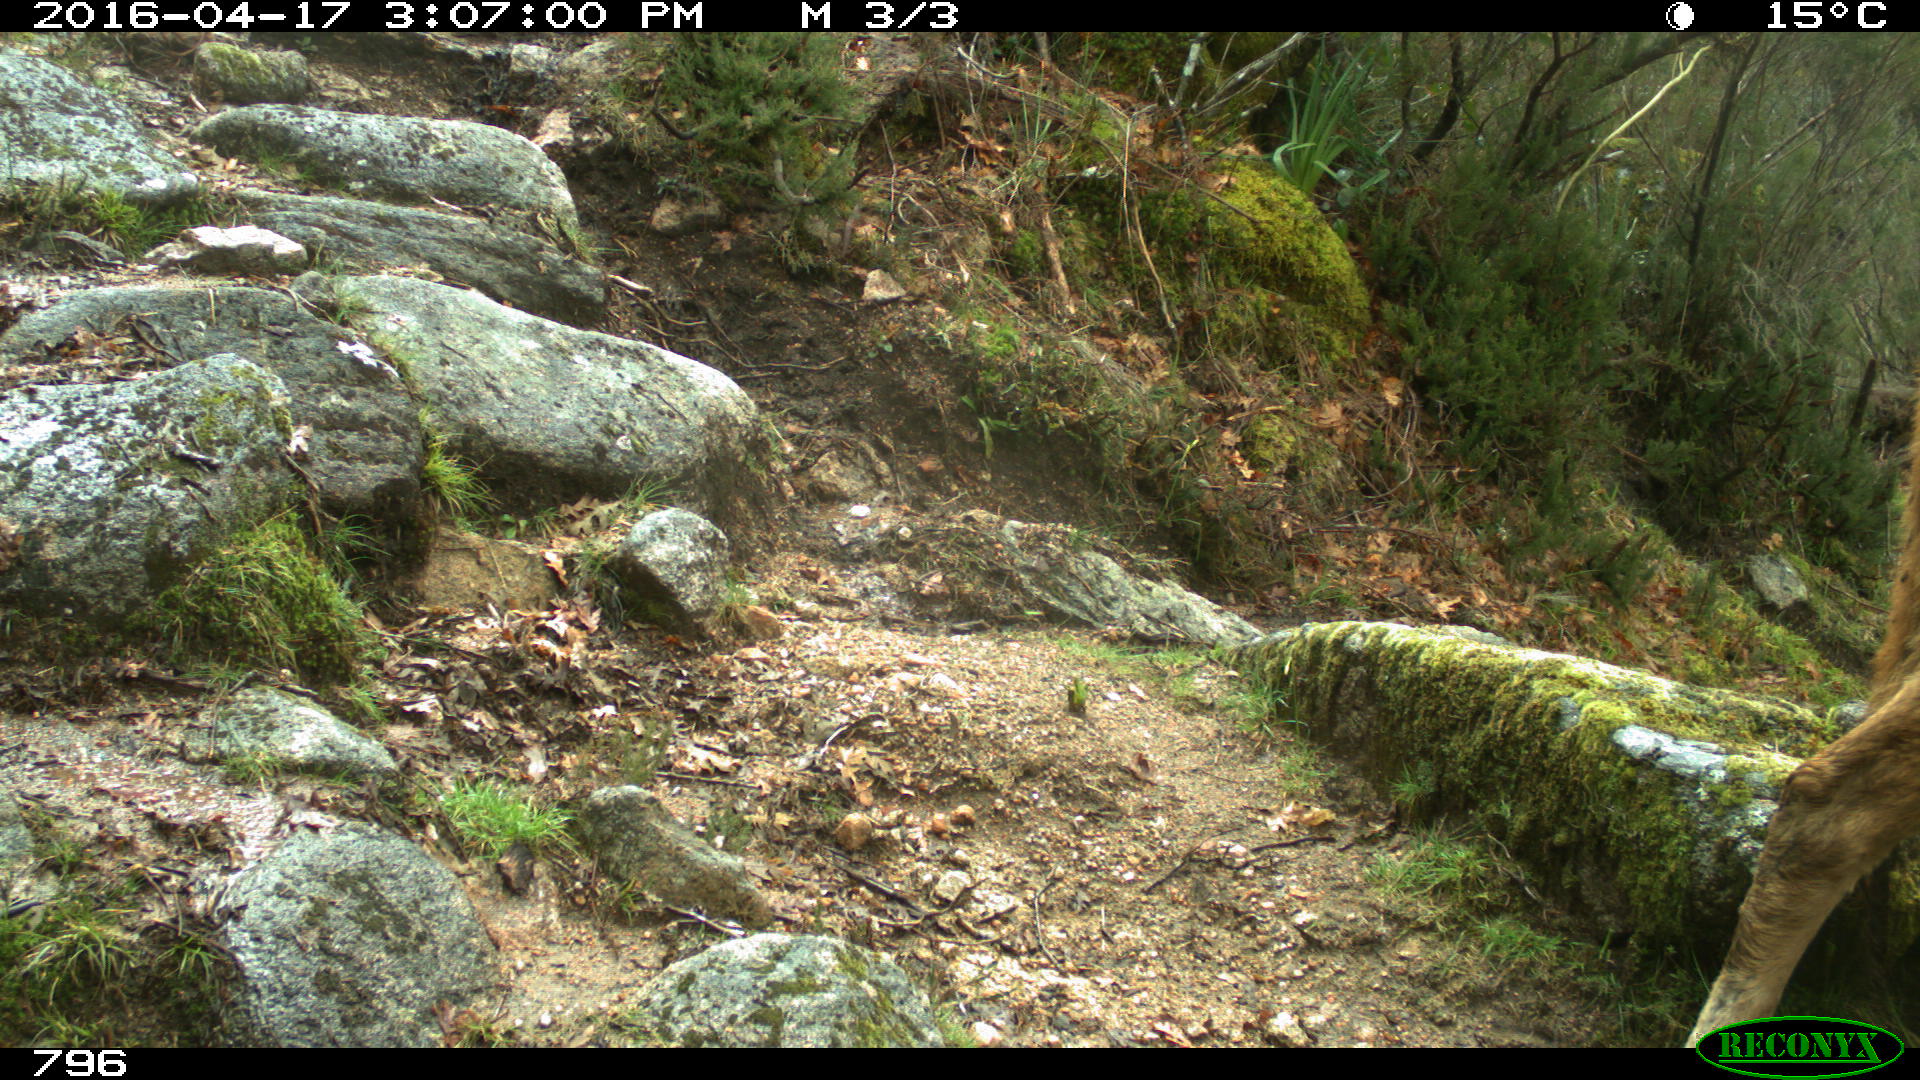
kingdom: Animalia
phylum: Chordata
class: Mammalia
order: Artiodactyla
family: Bovidae
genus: Bos
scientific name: Bos taurus
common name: Domesticated cattle
